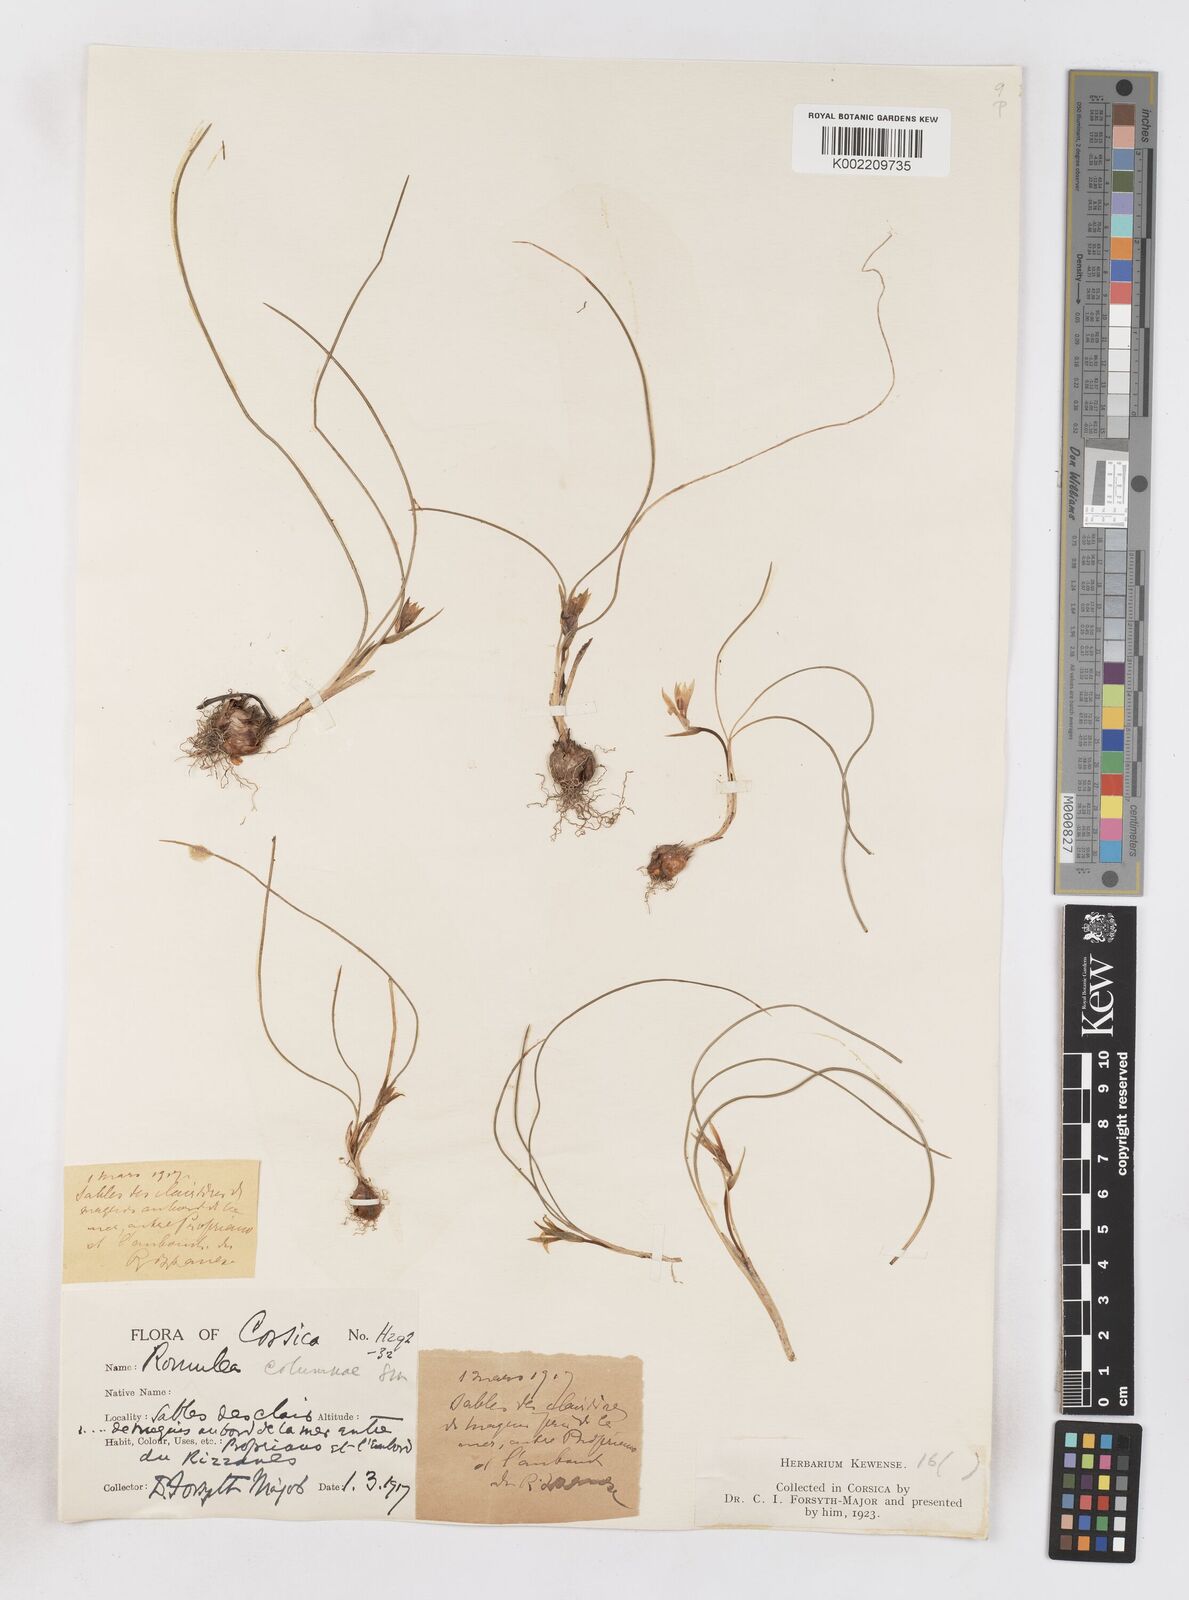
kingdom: Plantae
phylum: Tracheophyta
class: Liliopsida
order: Asparagales
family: Iridaceae
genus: Romulea
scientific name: Romulea columnae
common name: Sand-crocus
